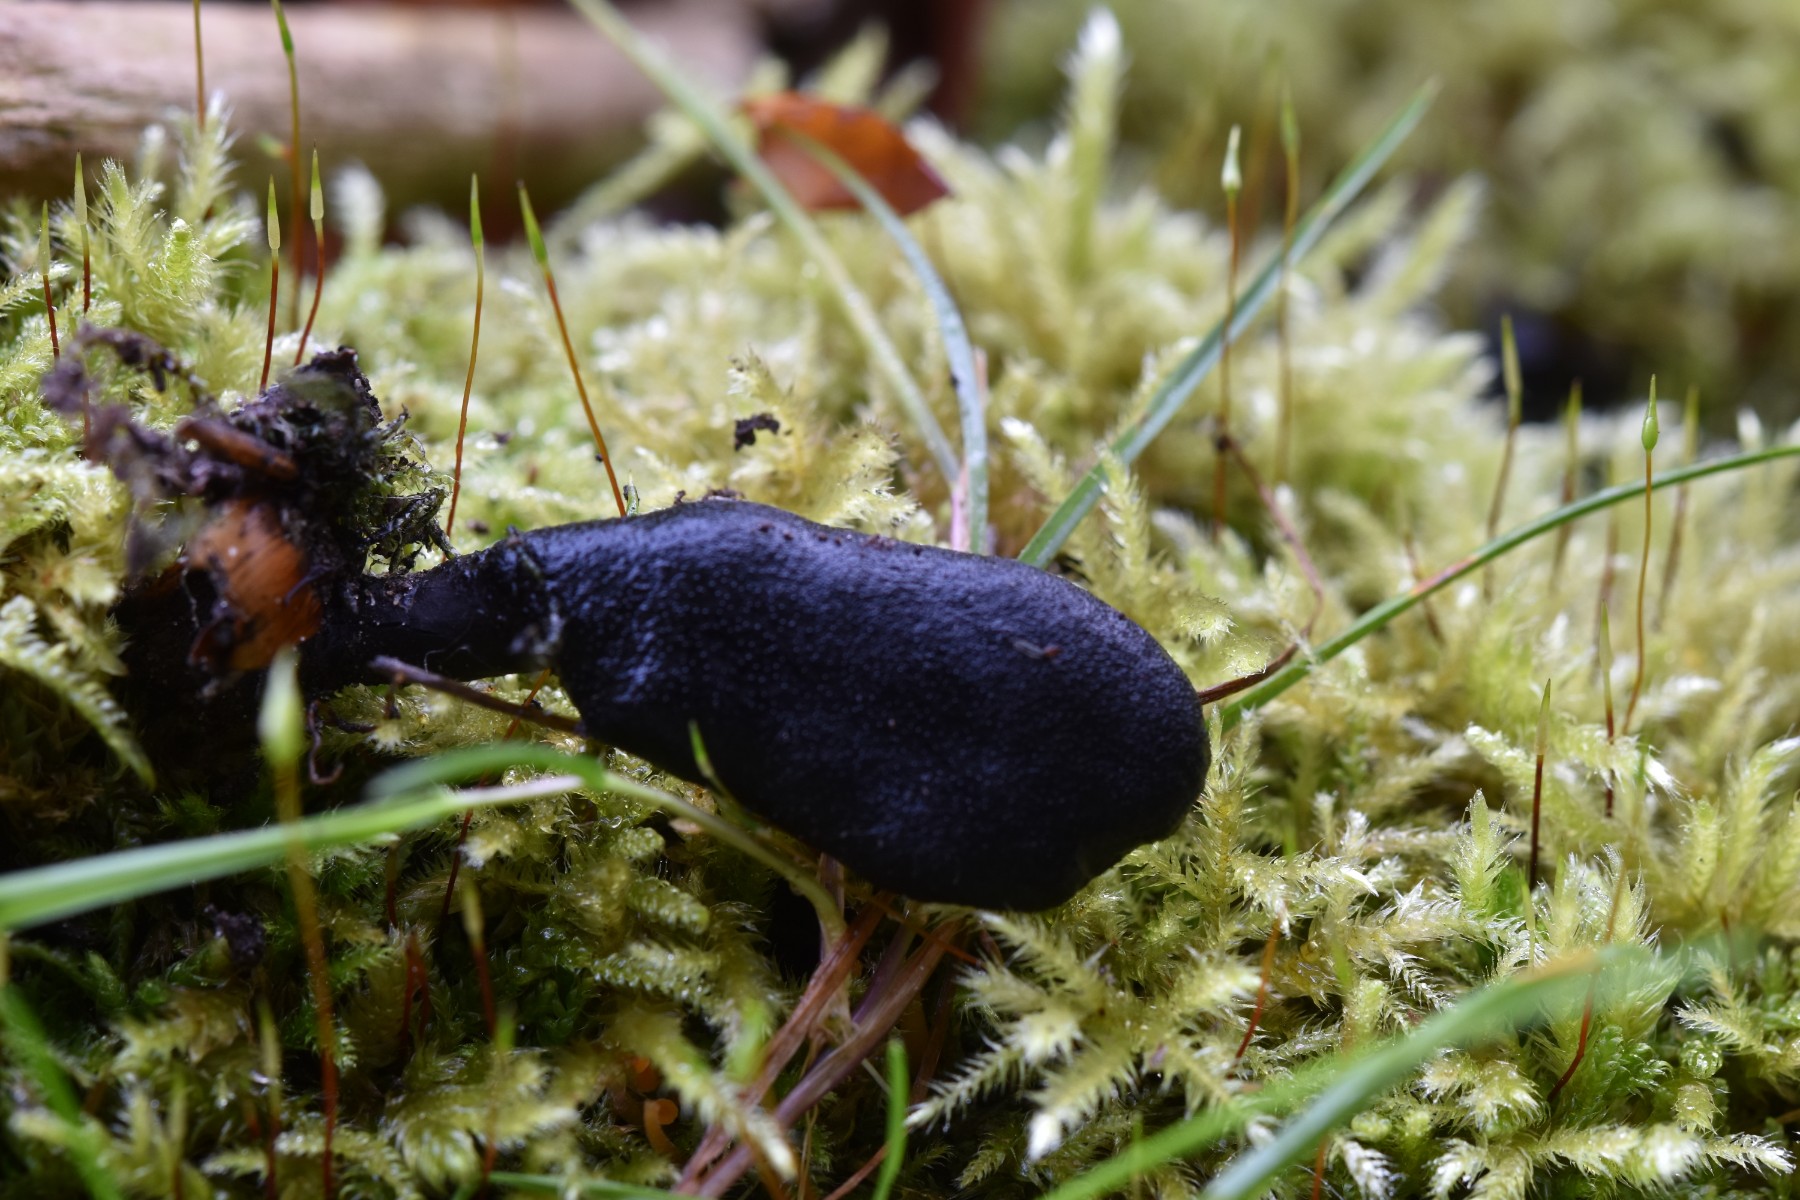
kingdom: Fungi
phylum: Ascomycota
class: Sordariomycetes
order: Xylariales
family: Xylariaceae
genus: Xylaria
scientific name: Xylaria longipes
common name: slank stødsvamp
